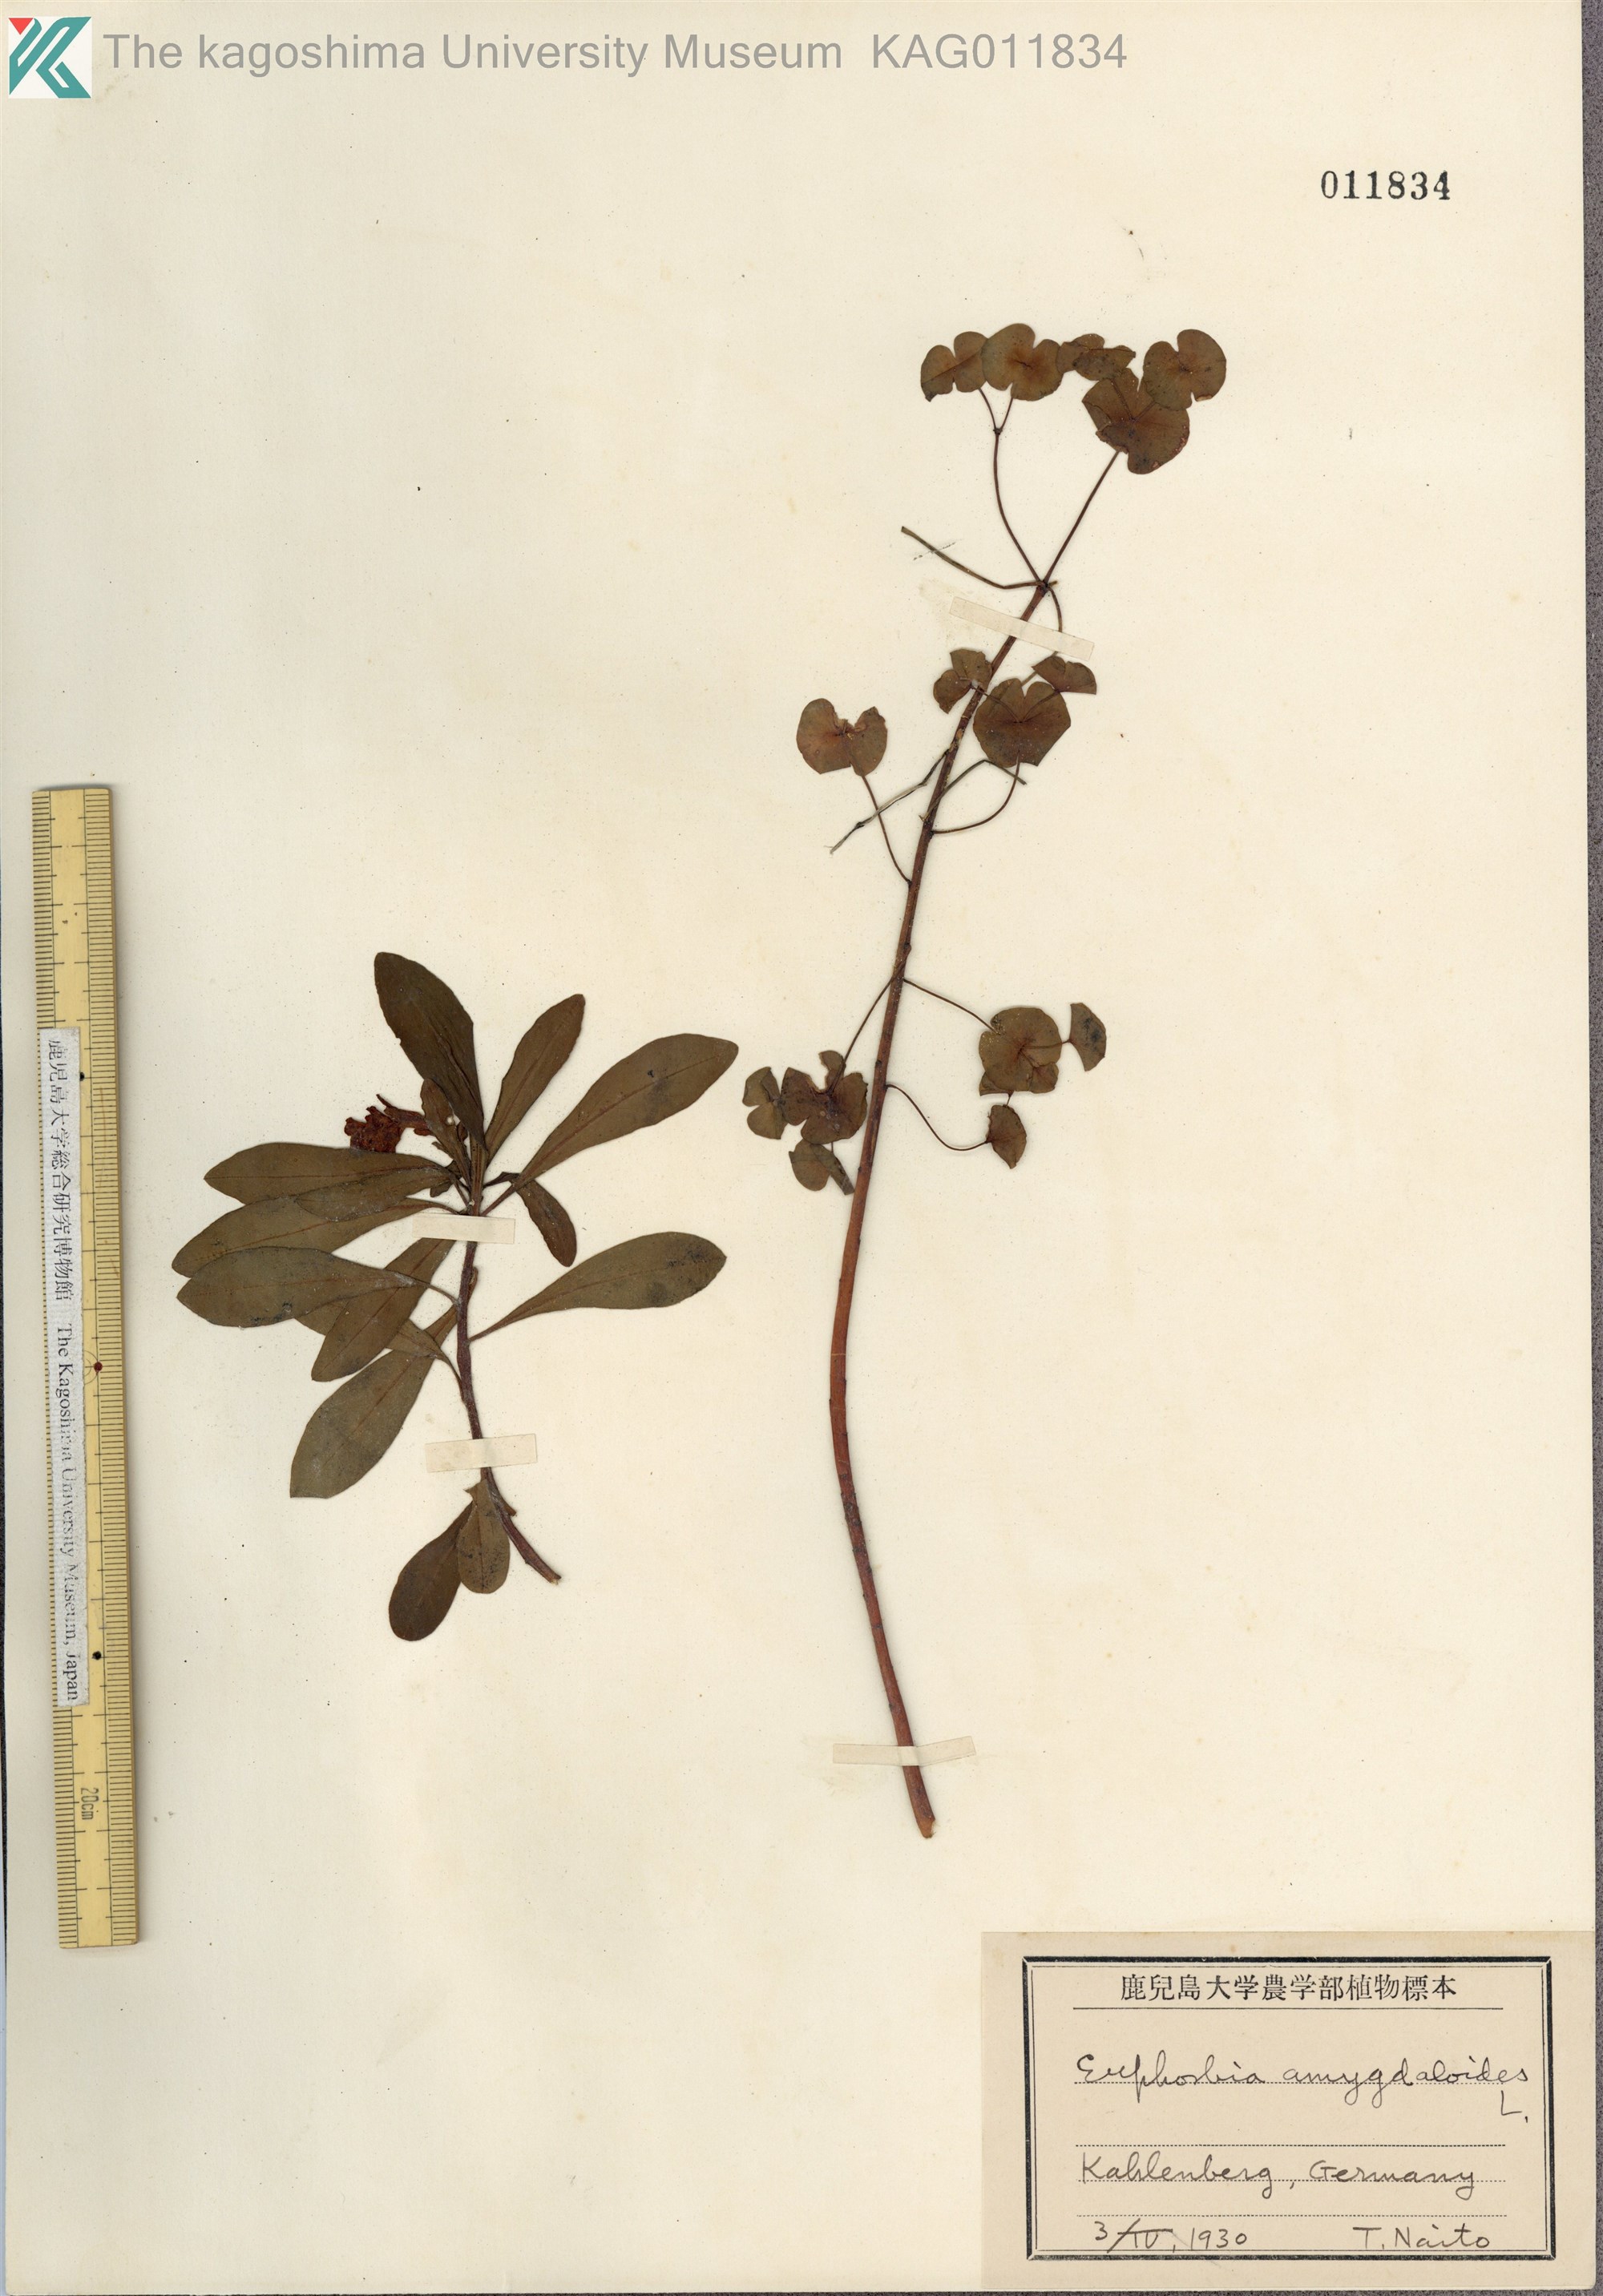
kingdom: Plantae
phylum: Tracheophyta
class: Magnoliopsida
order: Malpighiales
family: Euphorbiaceae
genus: Euphorbia
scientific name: Euphorbia amygdaloides
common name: Wood spurge
